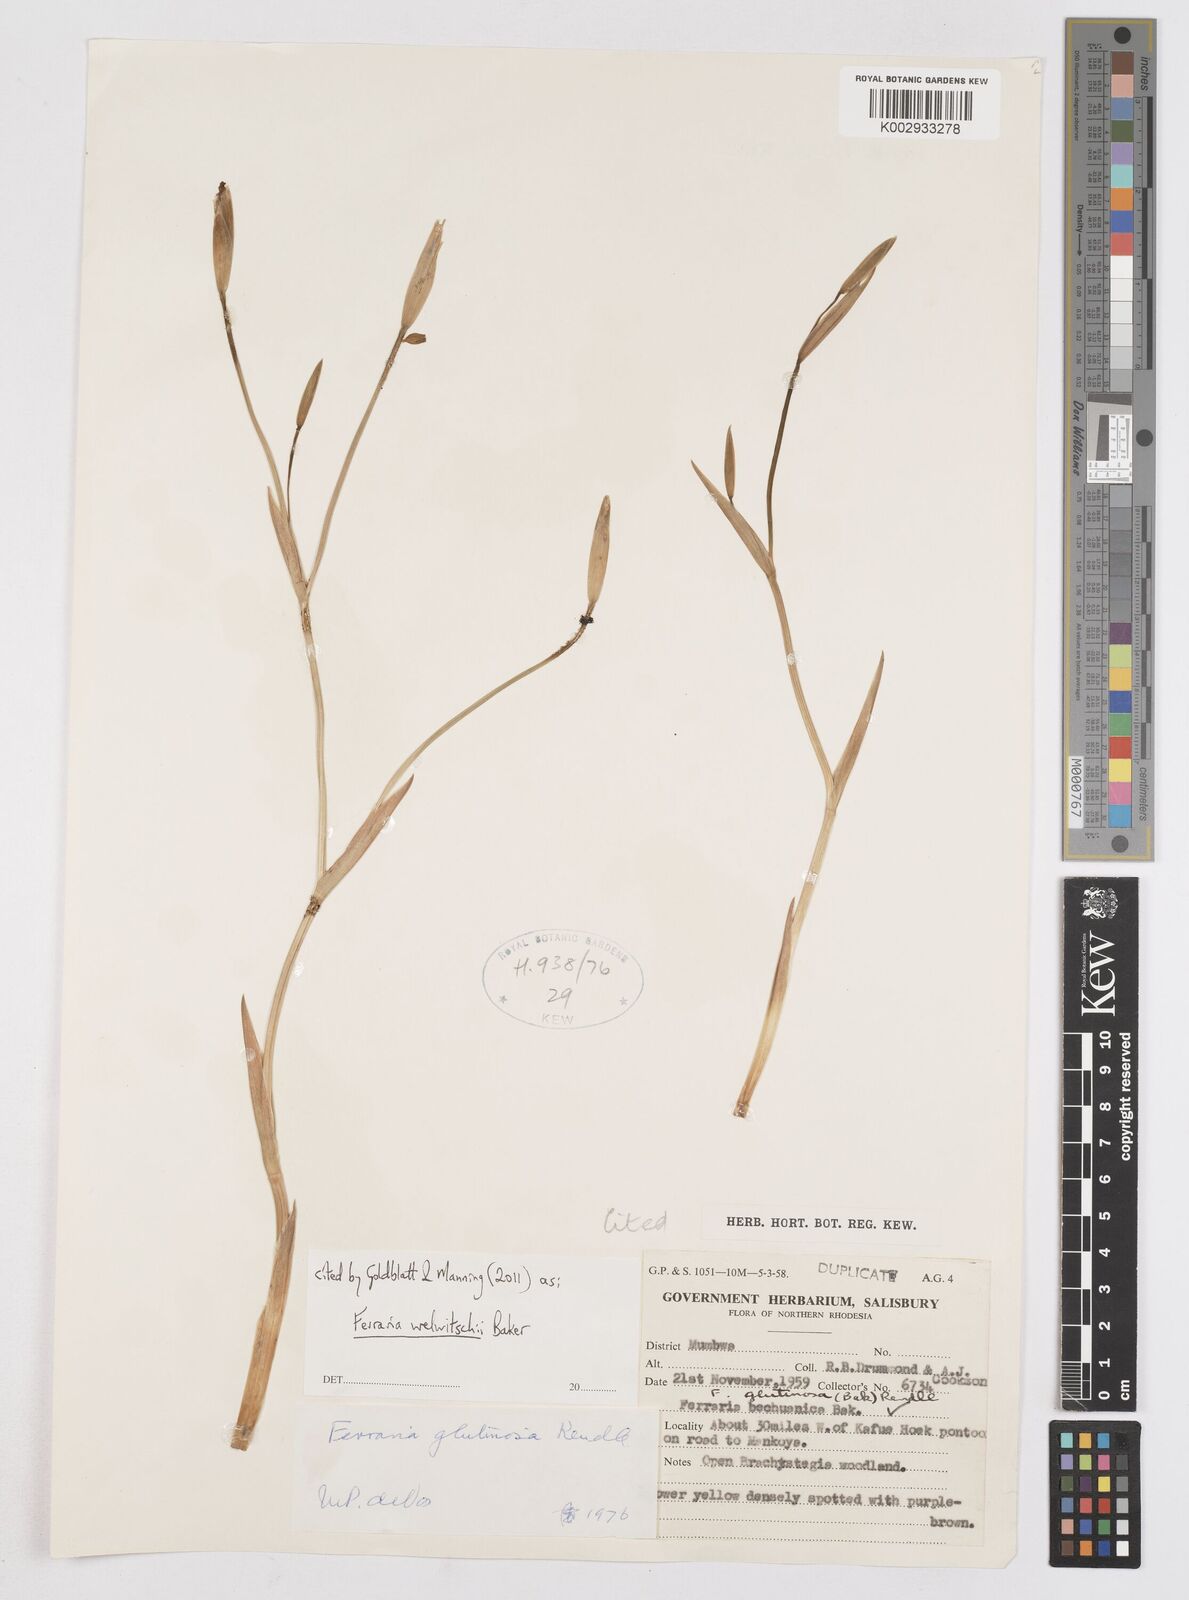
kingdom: Plantae
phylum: Tracheophyta
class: Liliopsida
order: Asparagales
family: Iridaceae
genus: Ferraria
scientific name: Ferraria welwitschii
